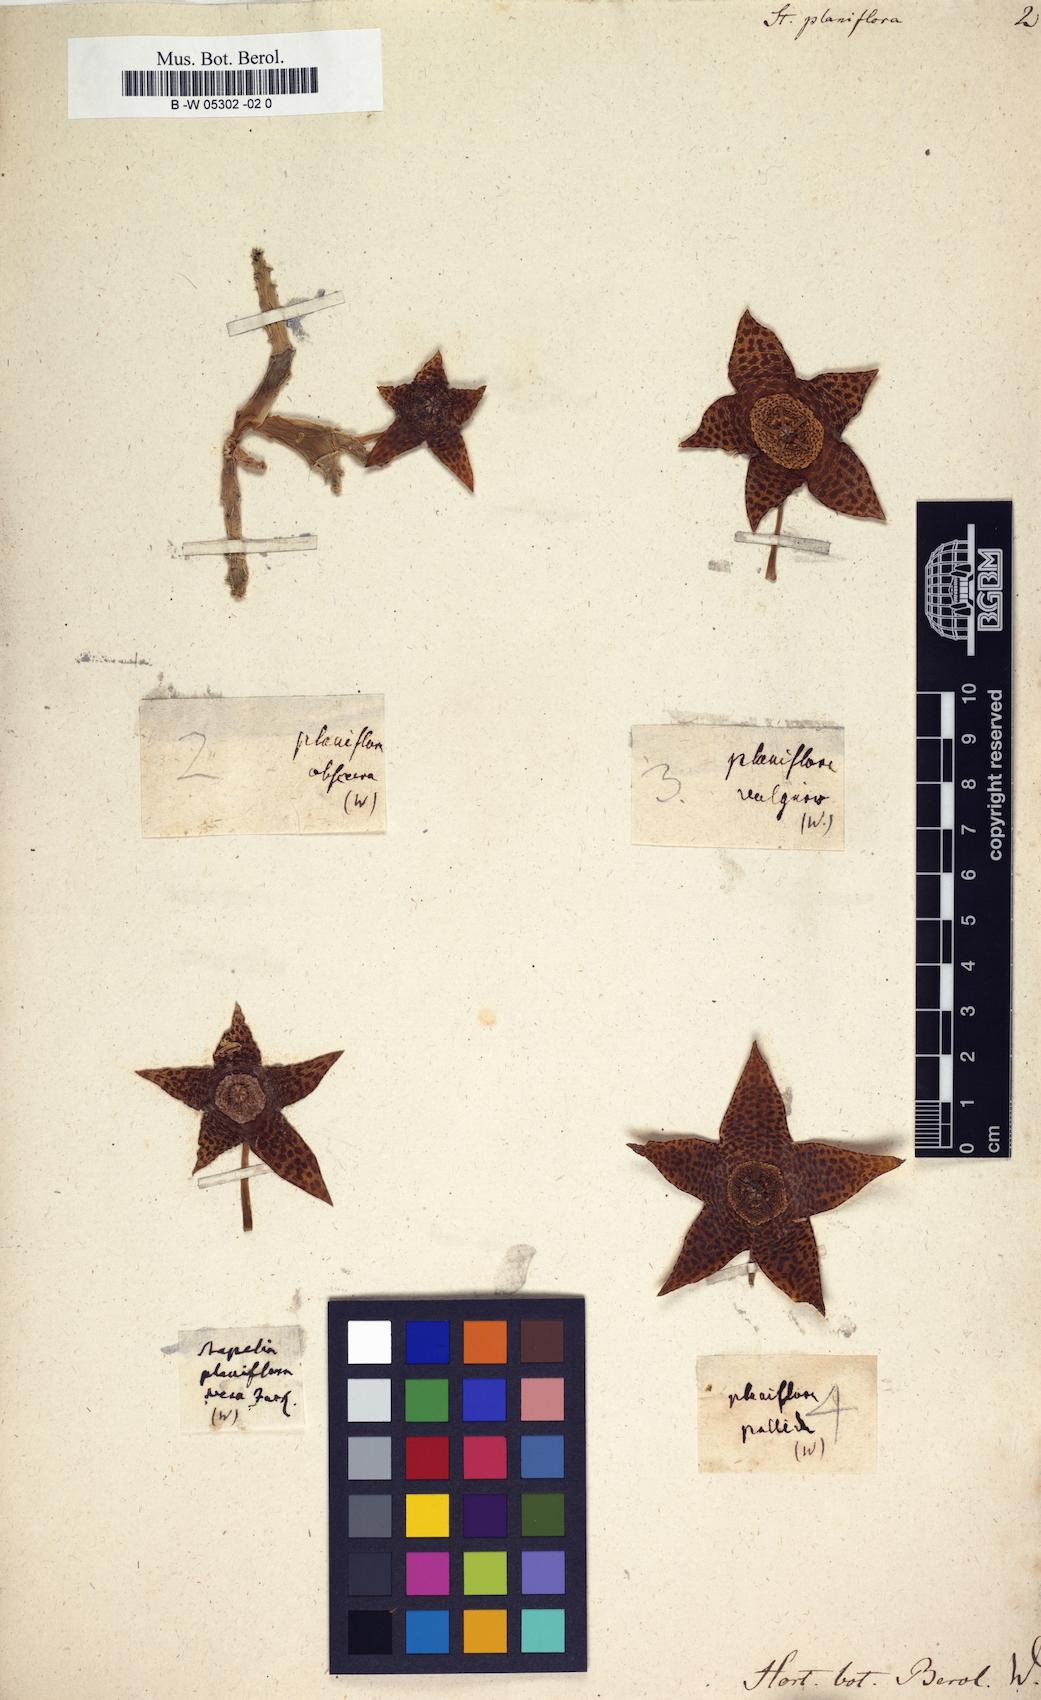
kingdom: Plantae
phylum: Tracheophyta
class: Magnoliopsida
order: Gentianales
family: Apocynaceae
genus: Ceropegia
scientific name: Ceropegia mixta
